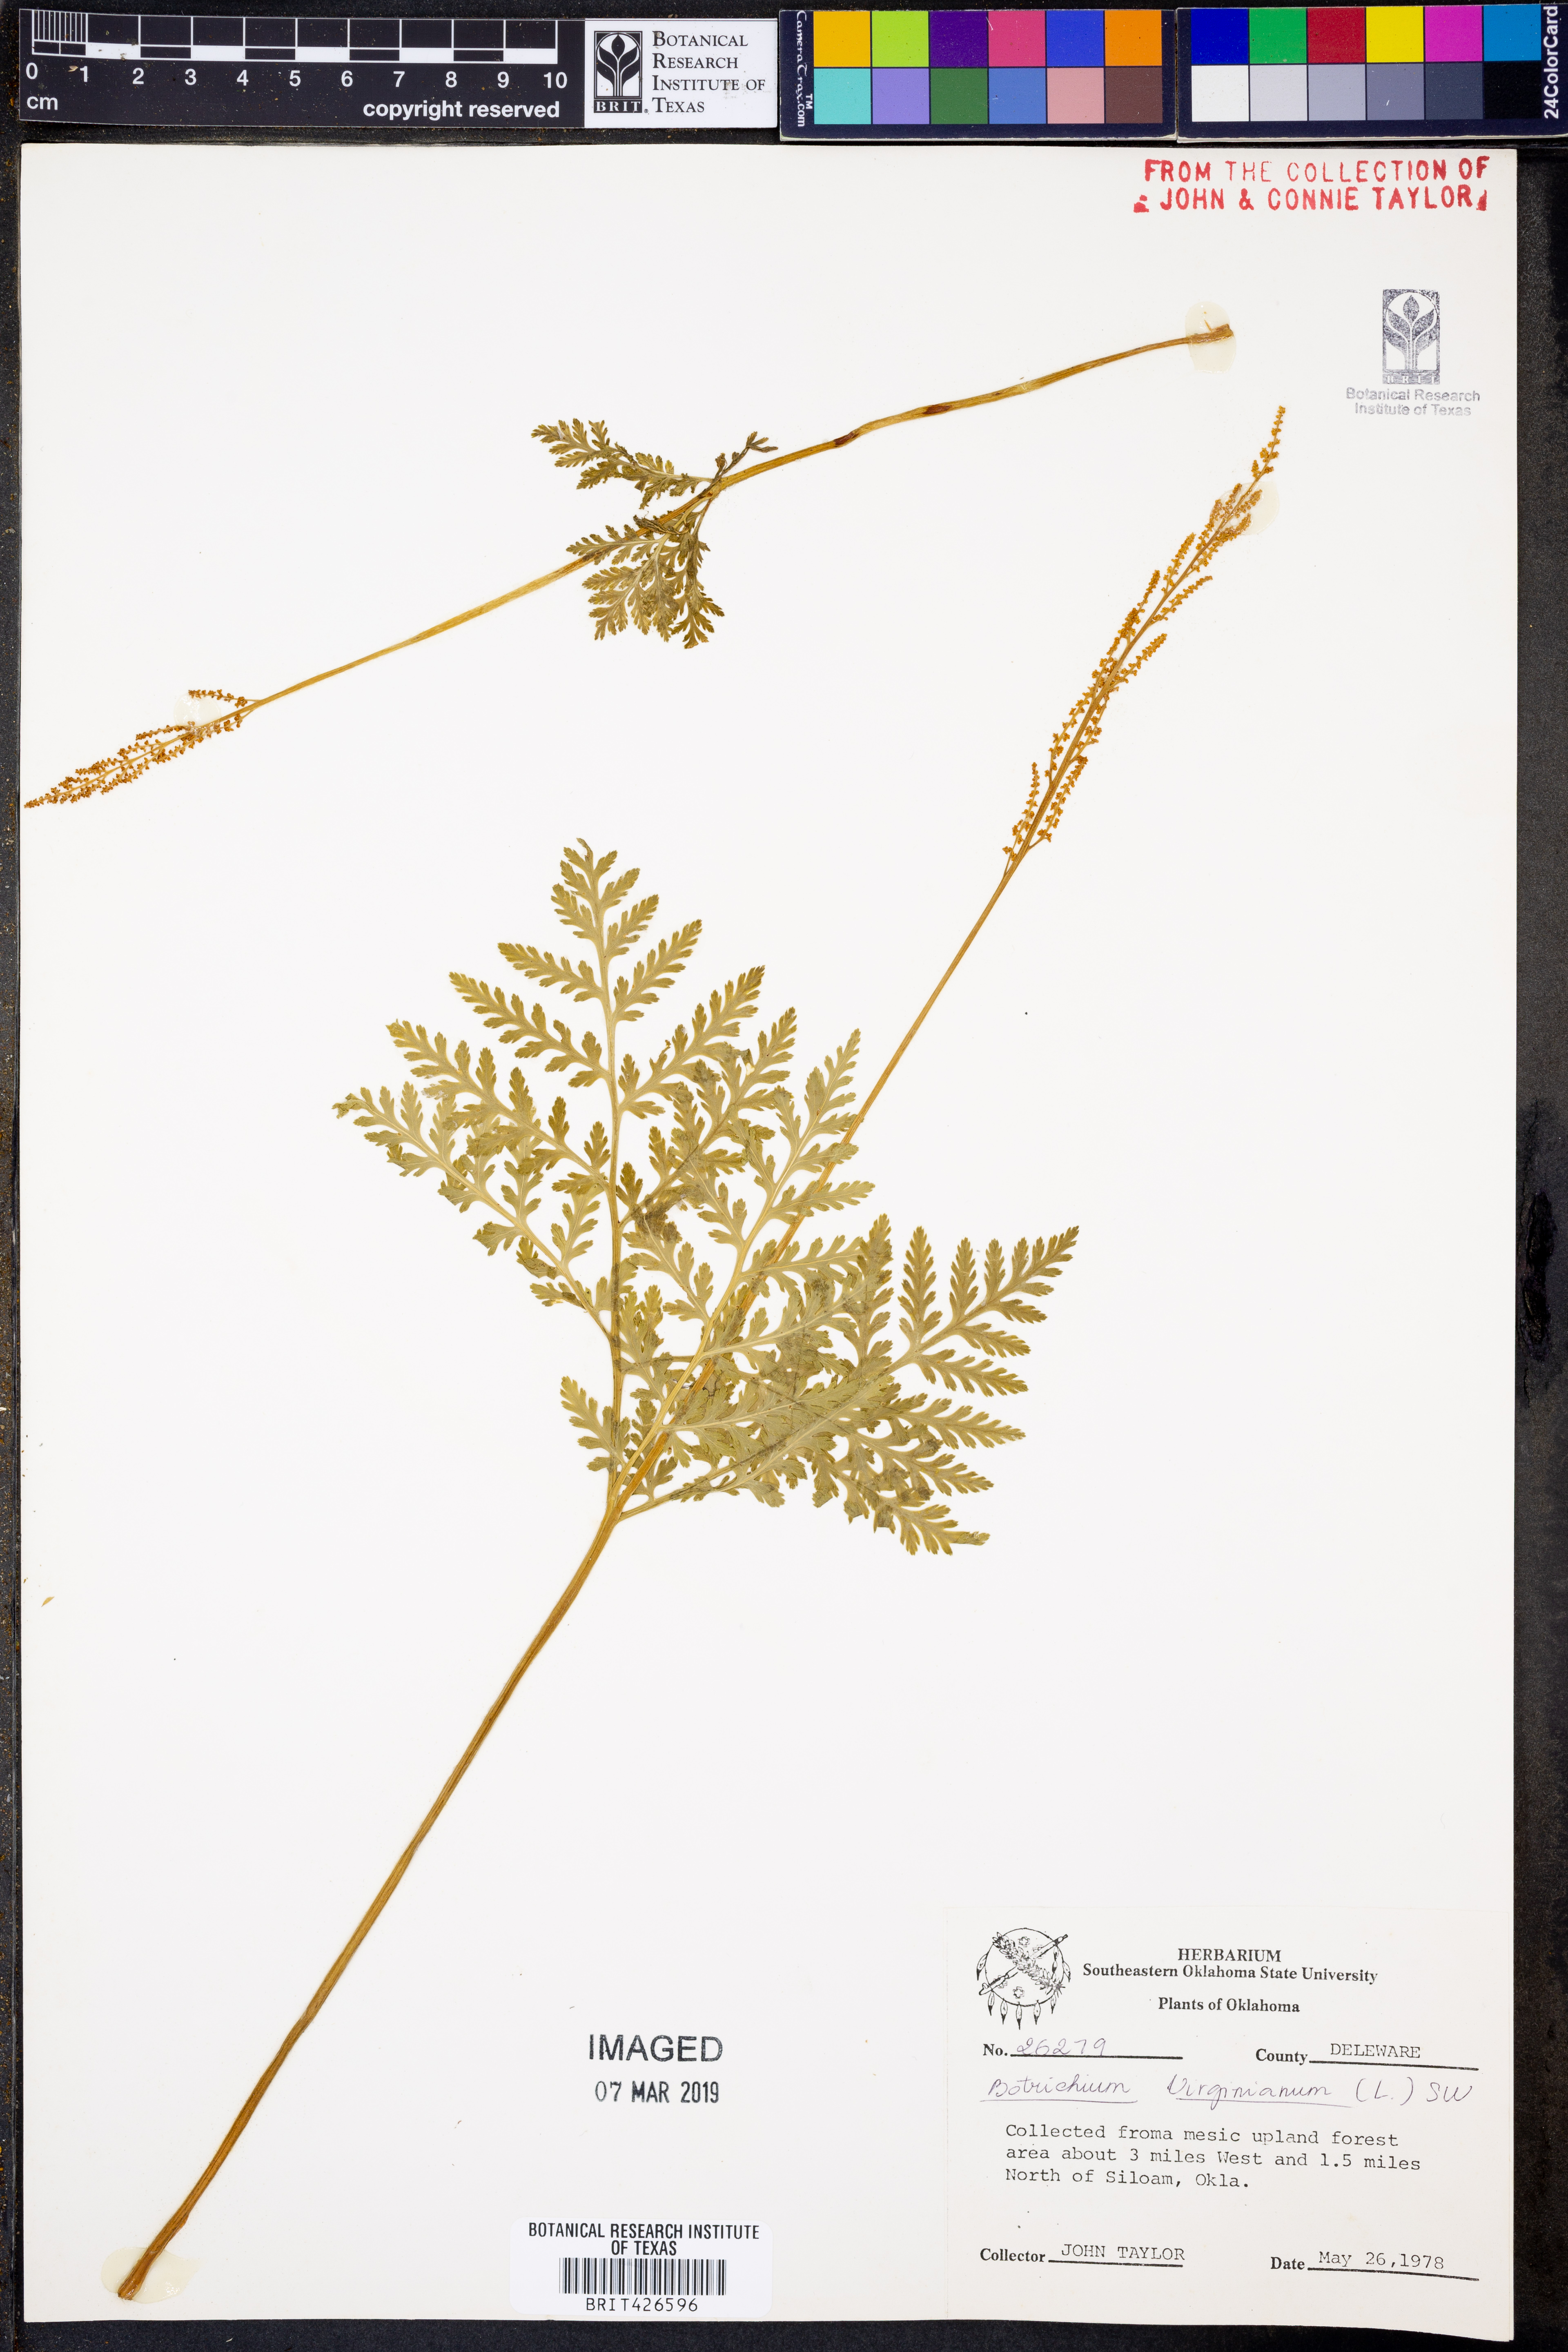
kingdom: Plantae
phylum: Tracheophyta
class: Polypodiopsida
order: Ophioglossales
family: Ophioglossaceae
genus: Botrypus
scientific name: Botrypus virginianus
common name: Common grapefern
